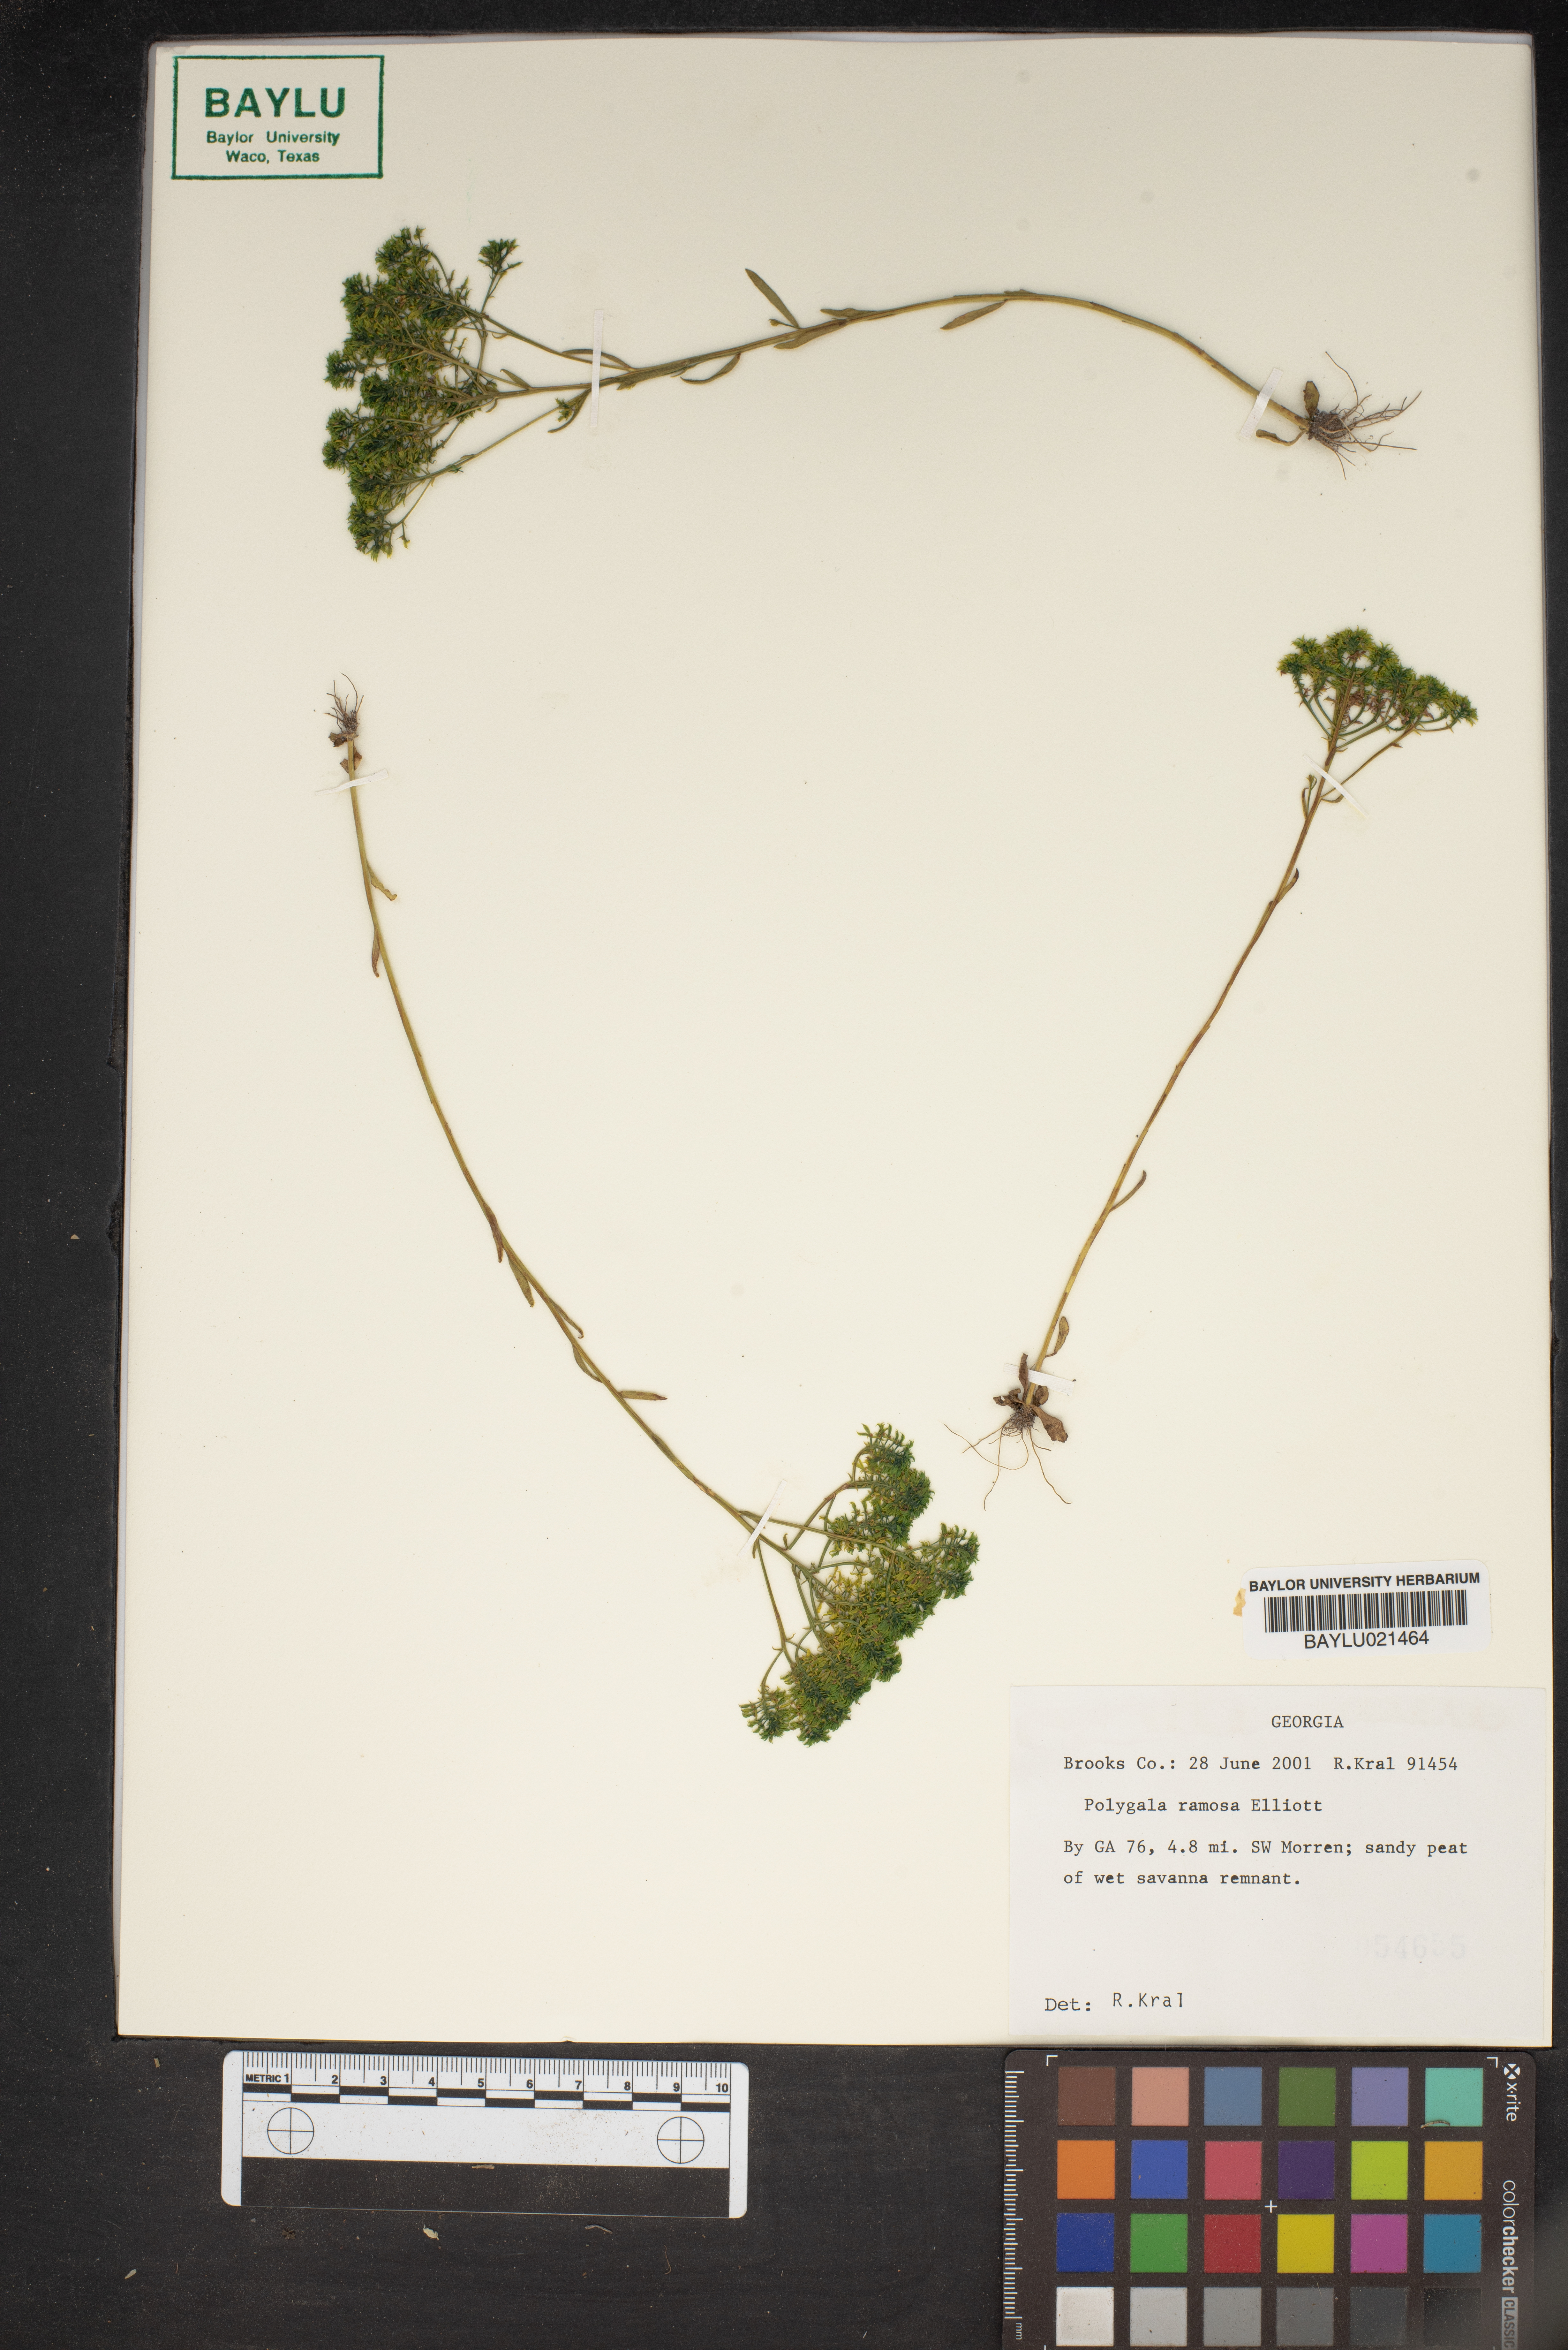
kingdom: Plantae
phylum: Tracheophyta
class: Magnoliopsida
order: Fabales
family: Polygalaceae
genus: Polygala
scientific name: Polygala ramosa
